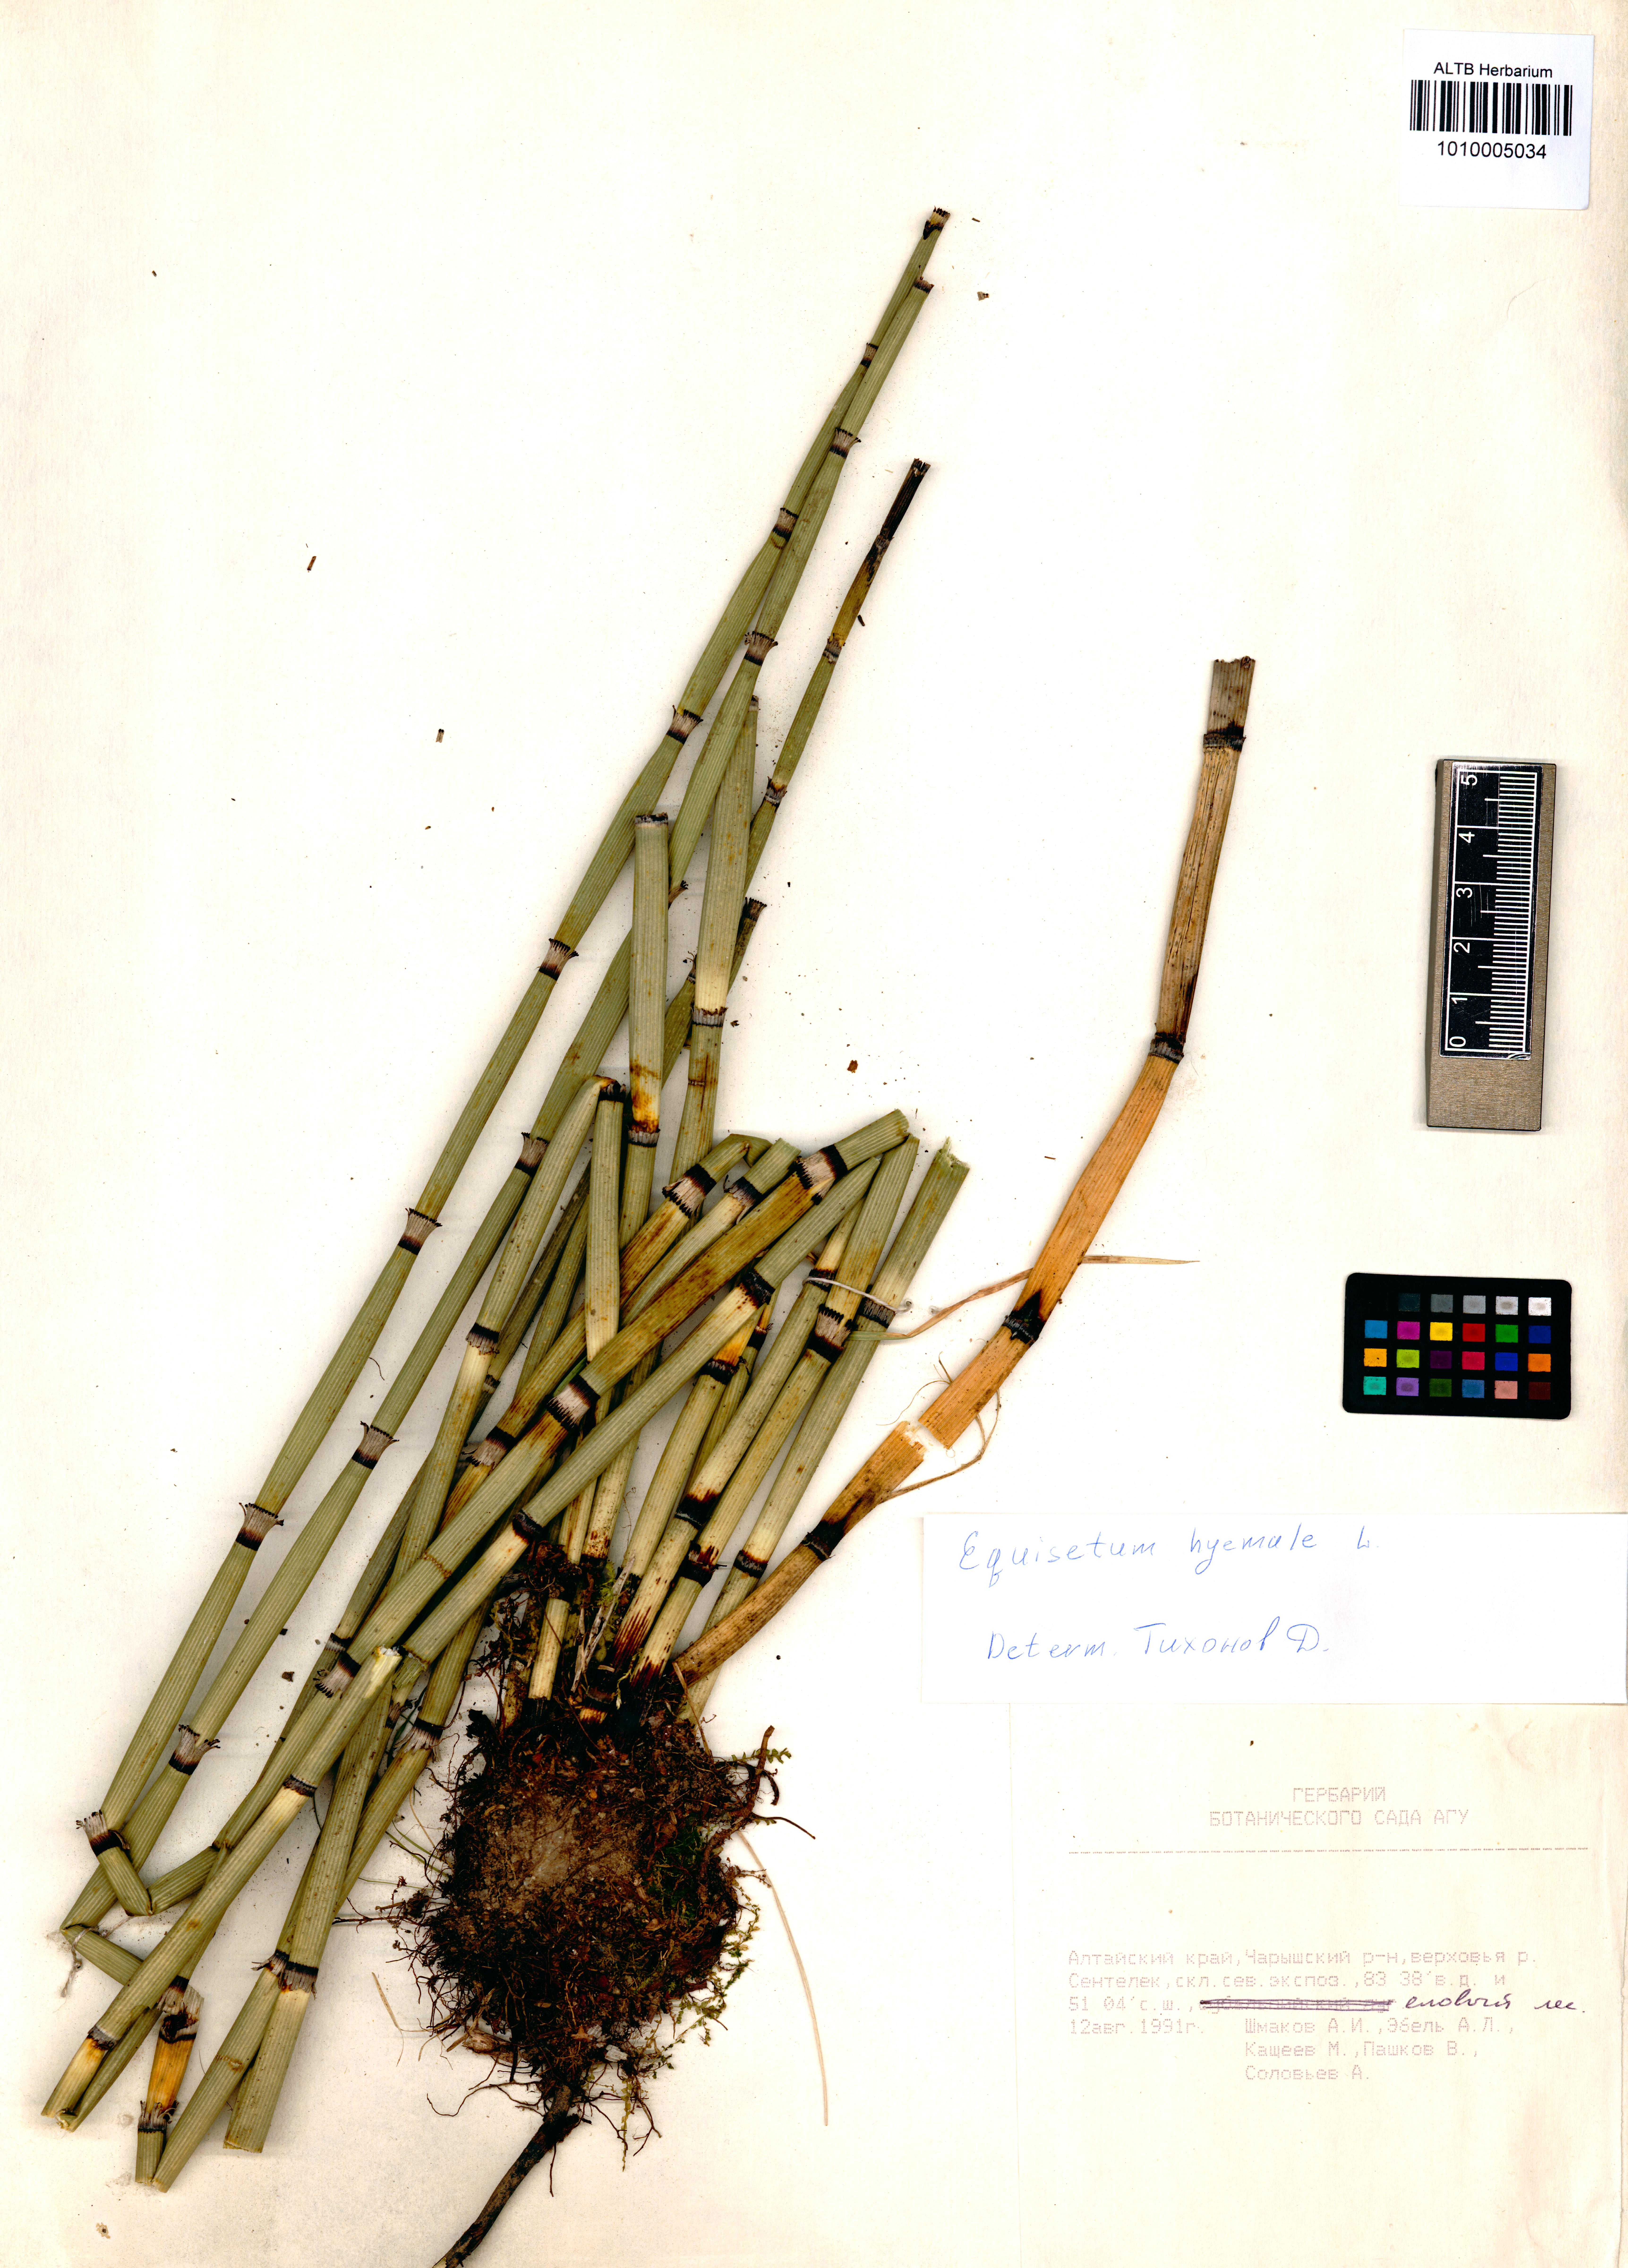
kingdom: Plantae
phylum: Tracheophyta
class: Polypodiopsida
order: Equisetales
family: Equisetaceae
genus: Equisetum
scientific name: Equisetum hyemale
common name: Rough horsetail
